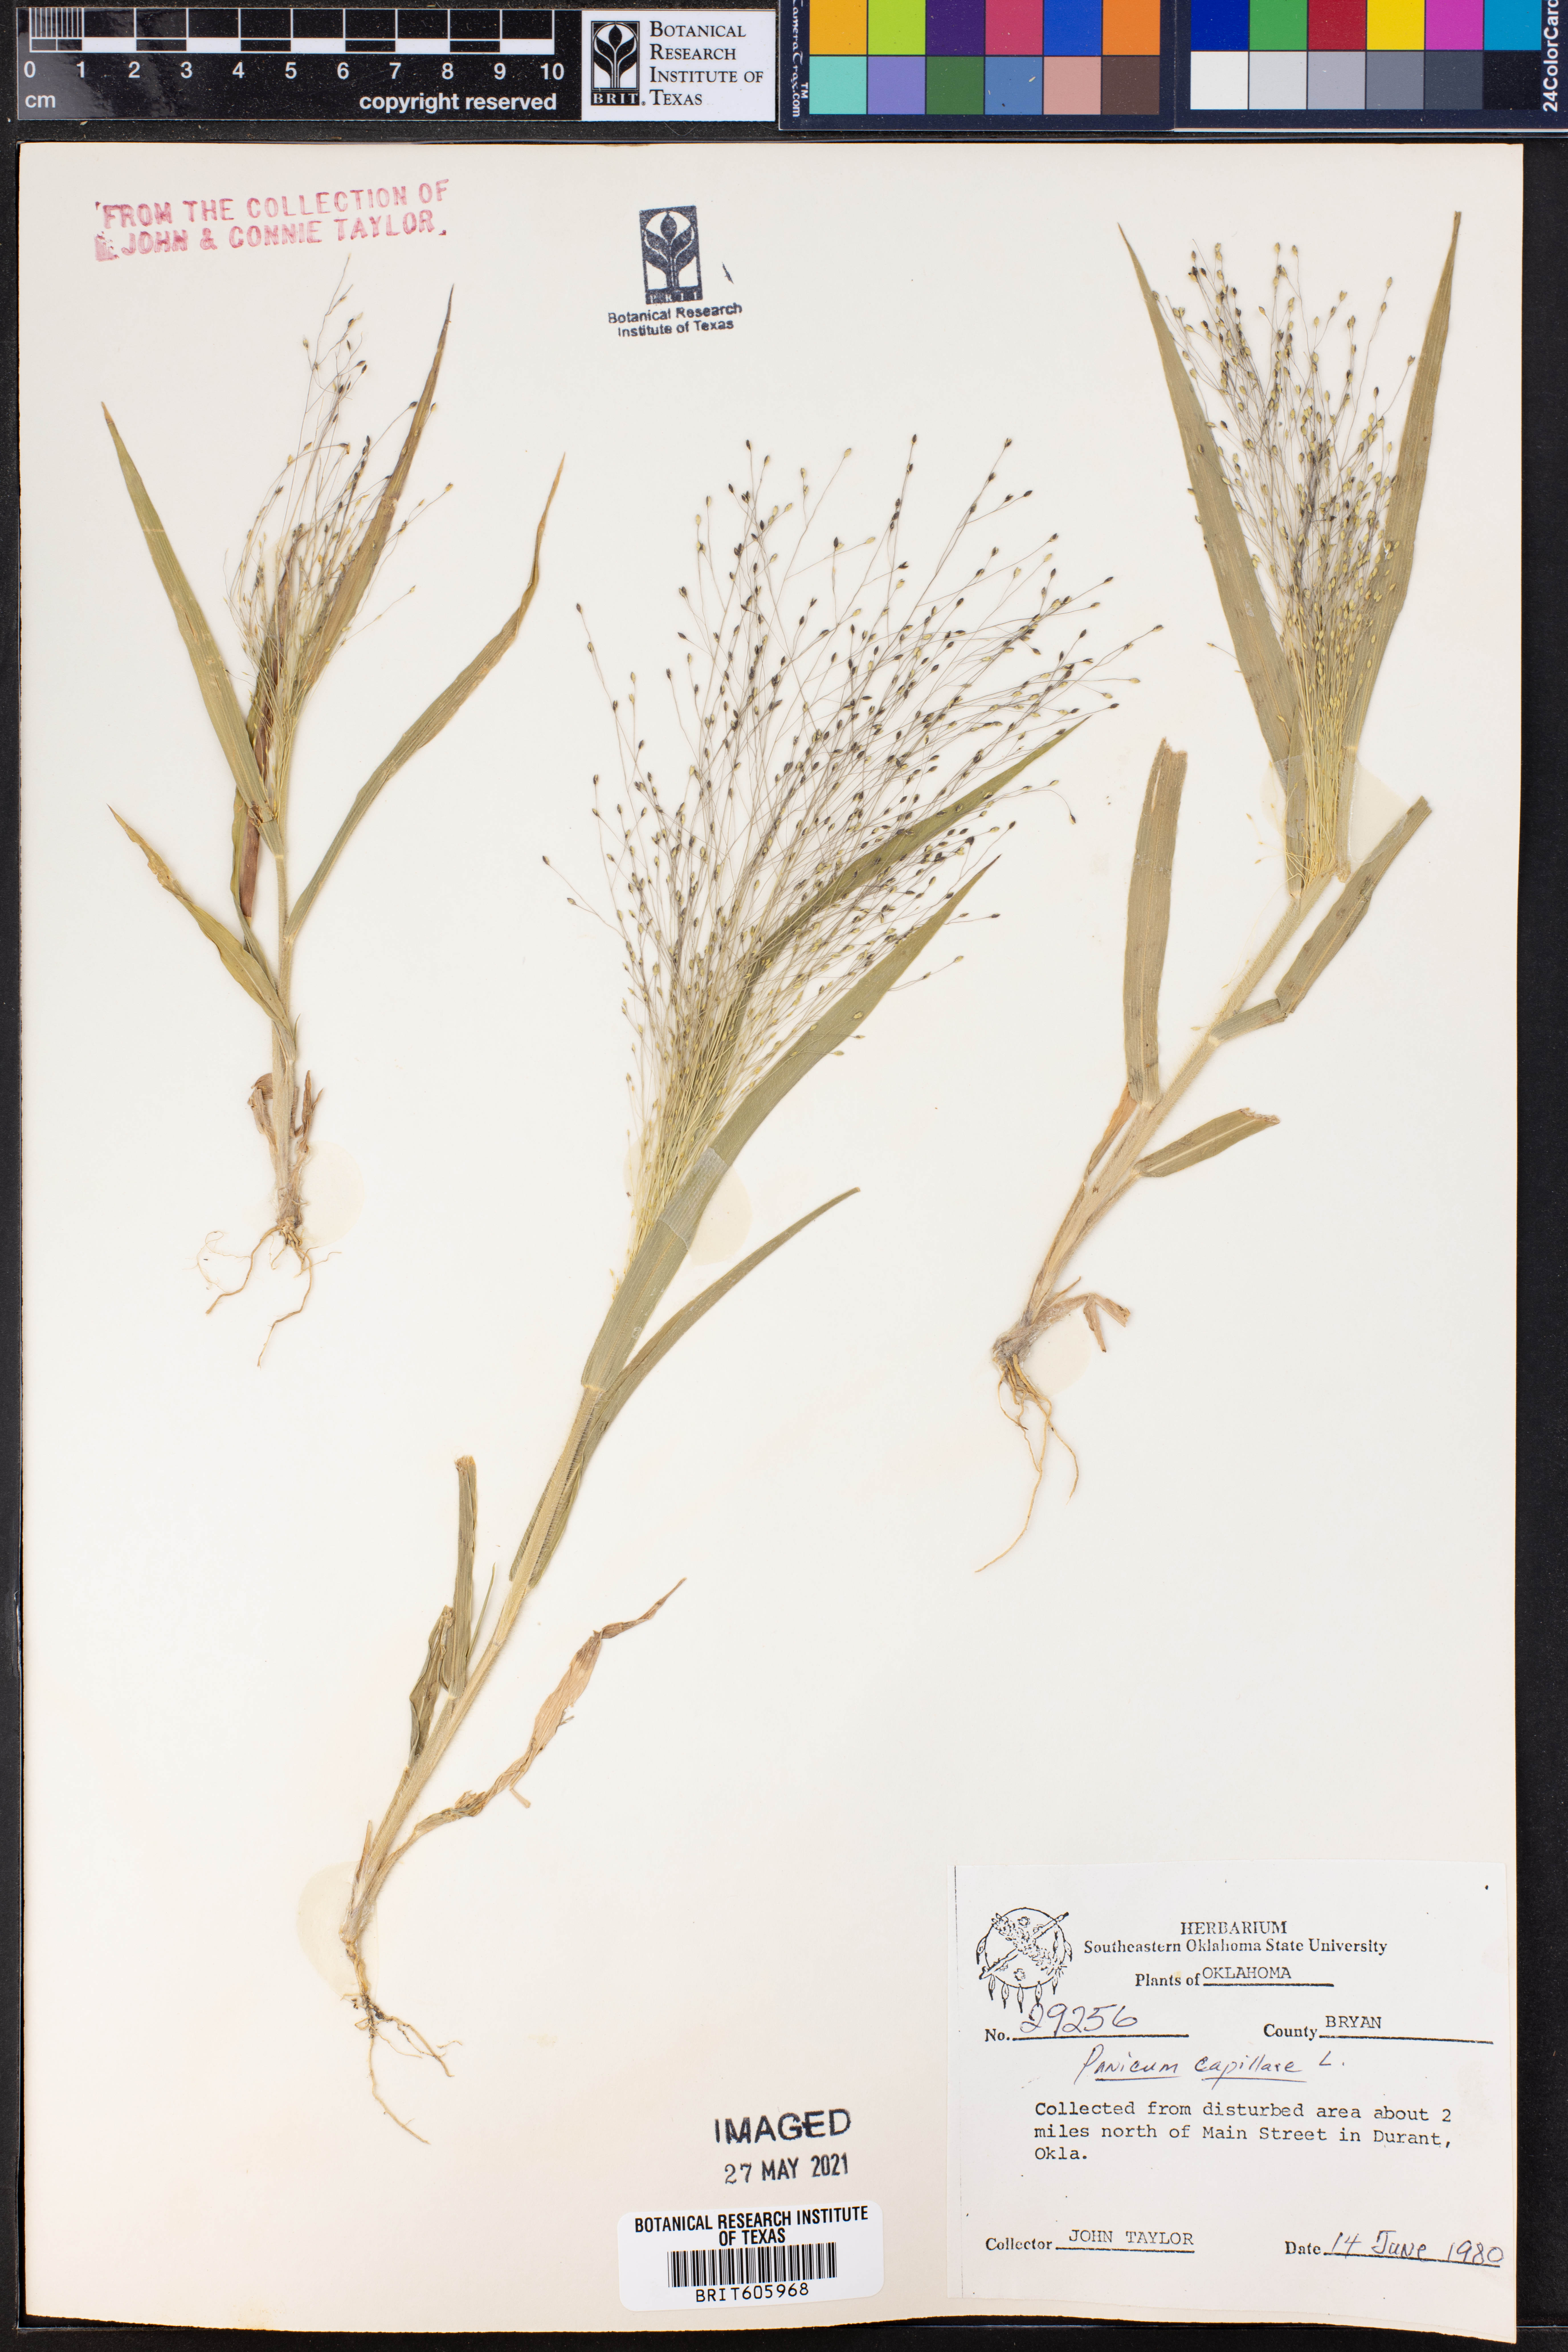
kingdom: Plantae
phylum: Tracheophyta
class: Liliopsida
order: Poales
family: Poaceae
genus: Panicum
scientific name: Panicum capillare
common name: Witch-grass
